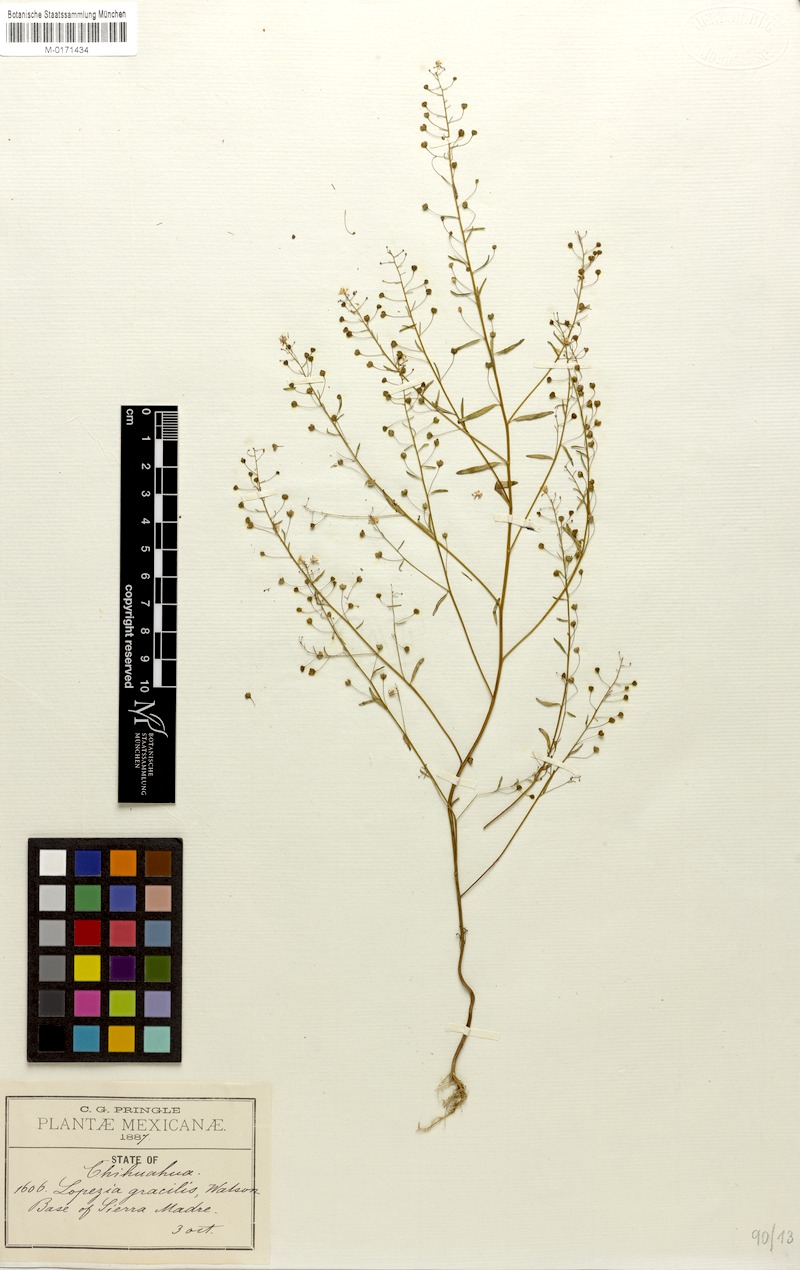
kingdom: Plantae
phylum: Tracheophyta
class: Magnoliopsida
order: Myrtales
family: Onagraceae
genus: Lopezia
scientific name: Lopezia gracilis
